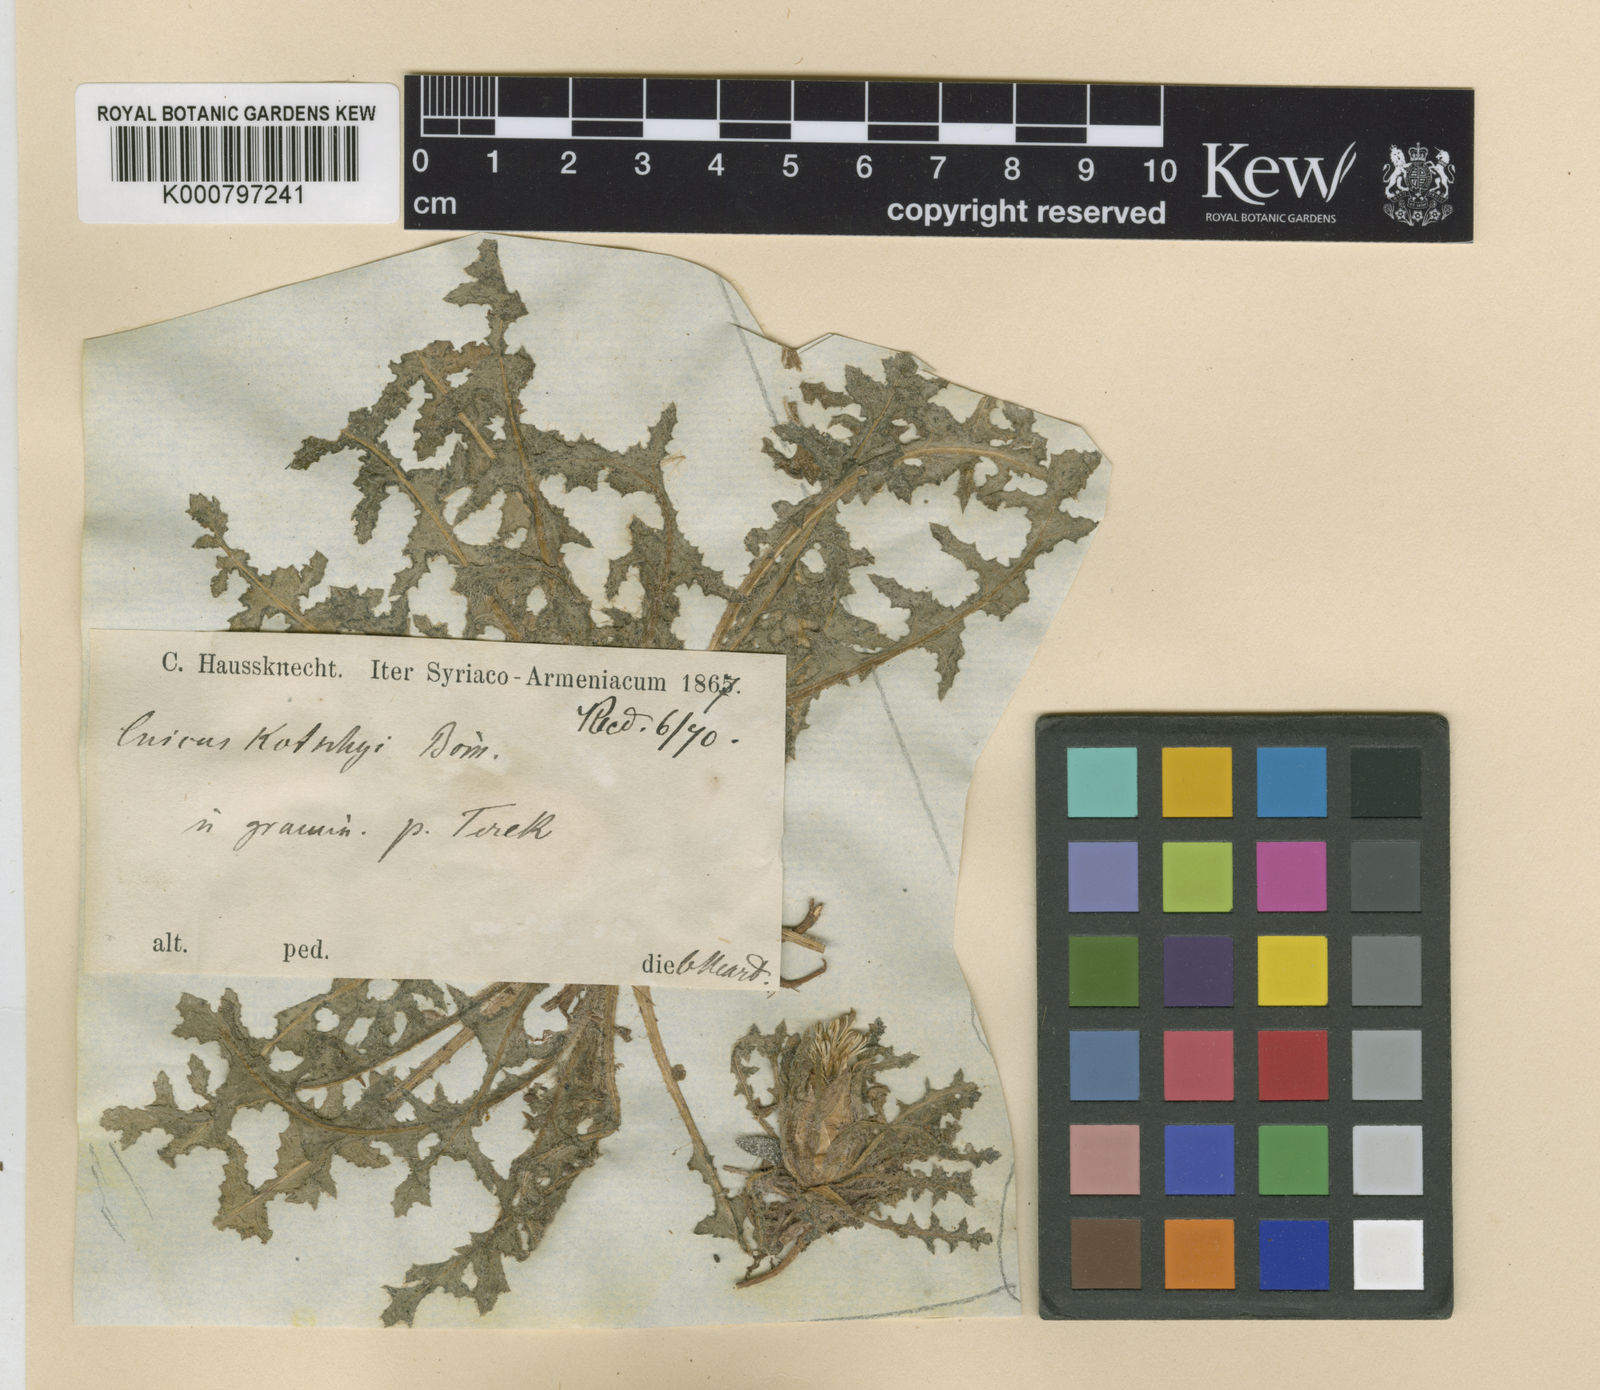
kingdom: Plantae
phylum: Tracheophyta
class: Magnoliopsida
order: Asterales
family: Asteraceae
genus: Centaurea
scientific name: Centaurea benedicta
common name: Blessed thistle
